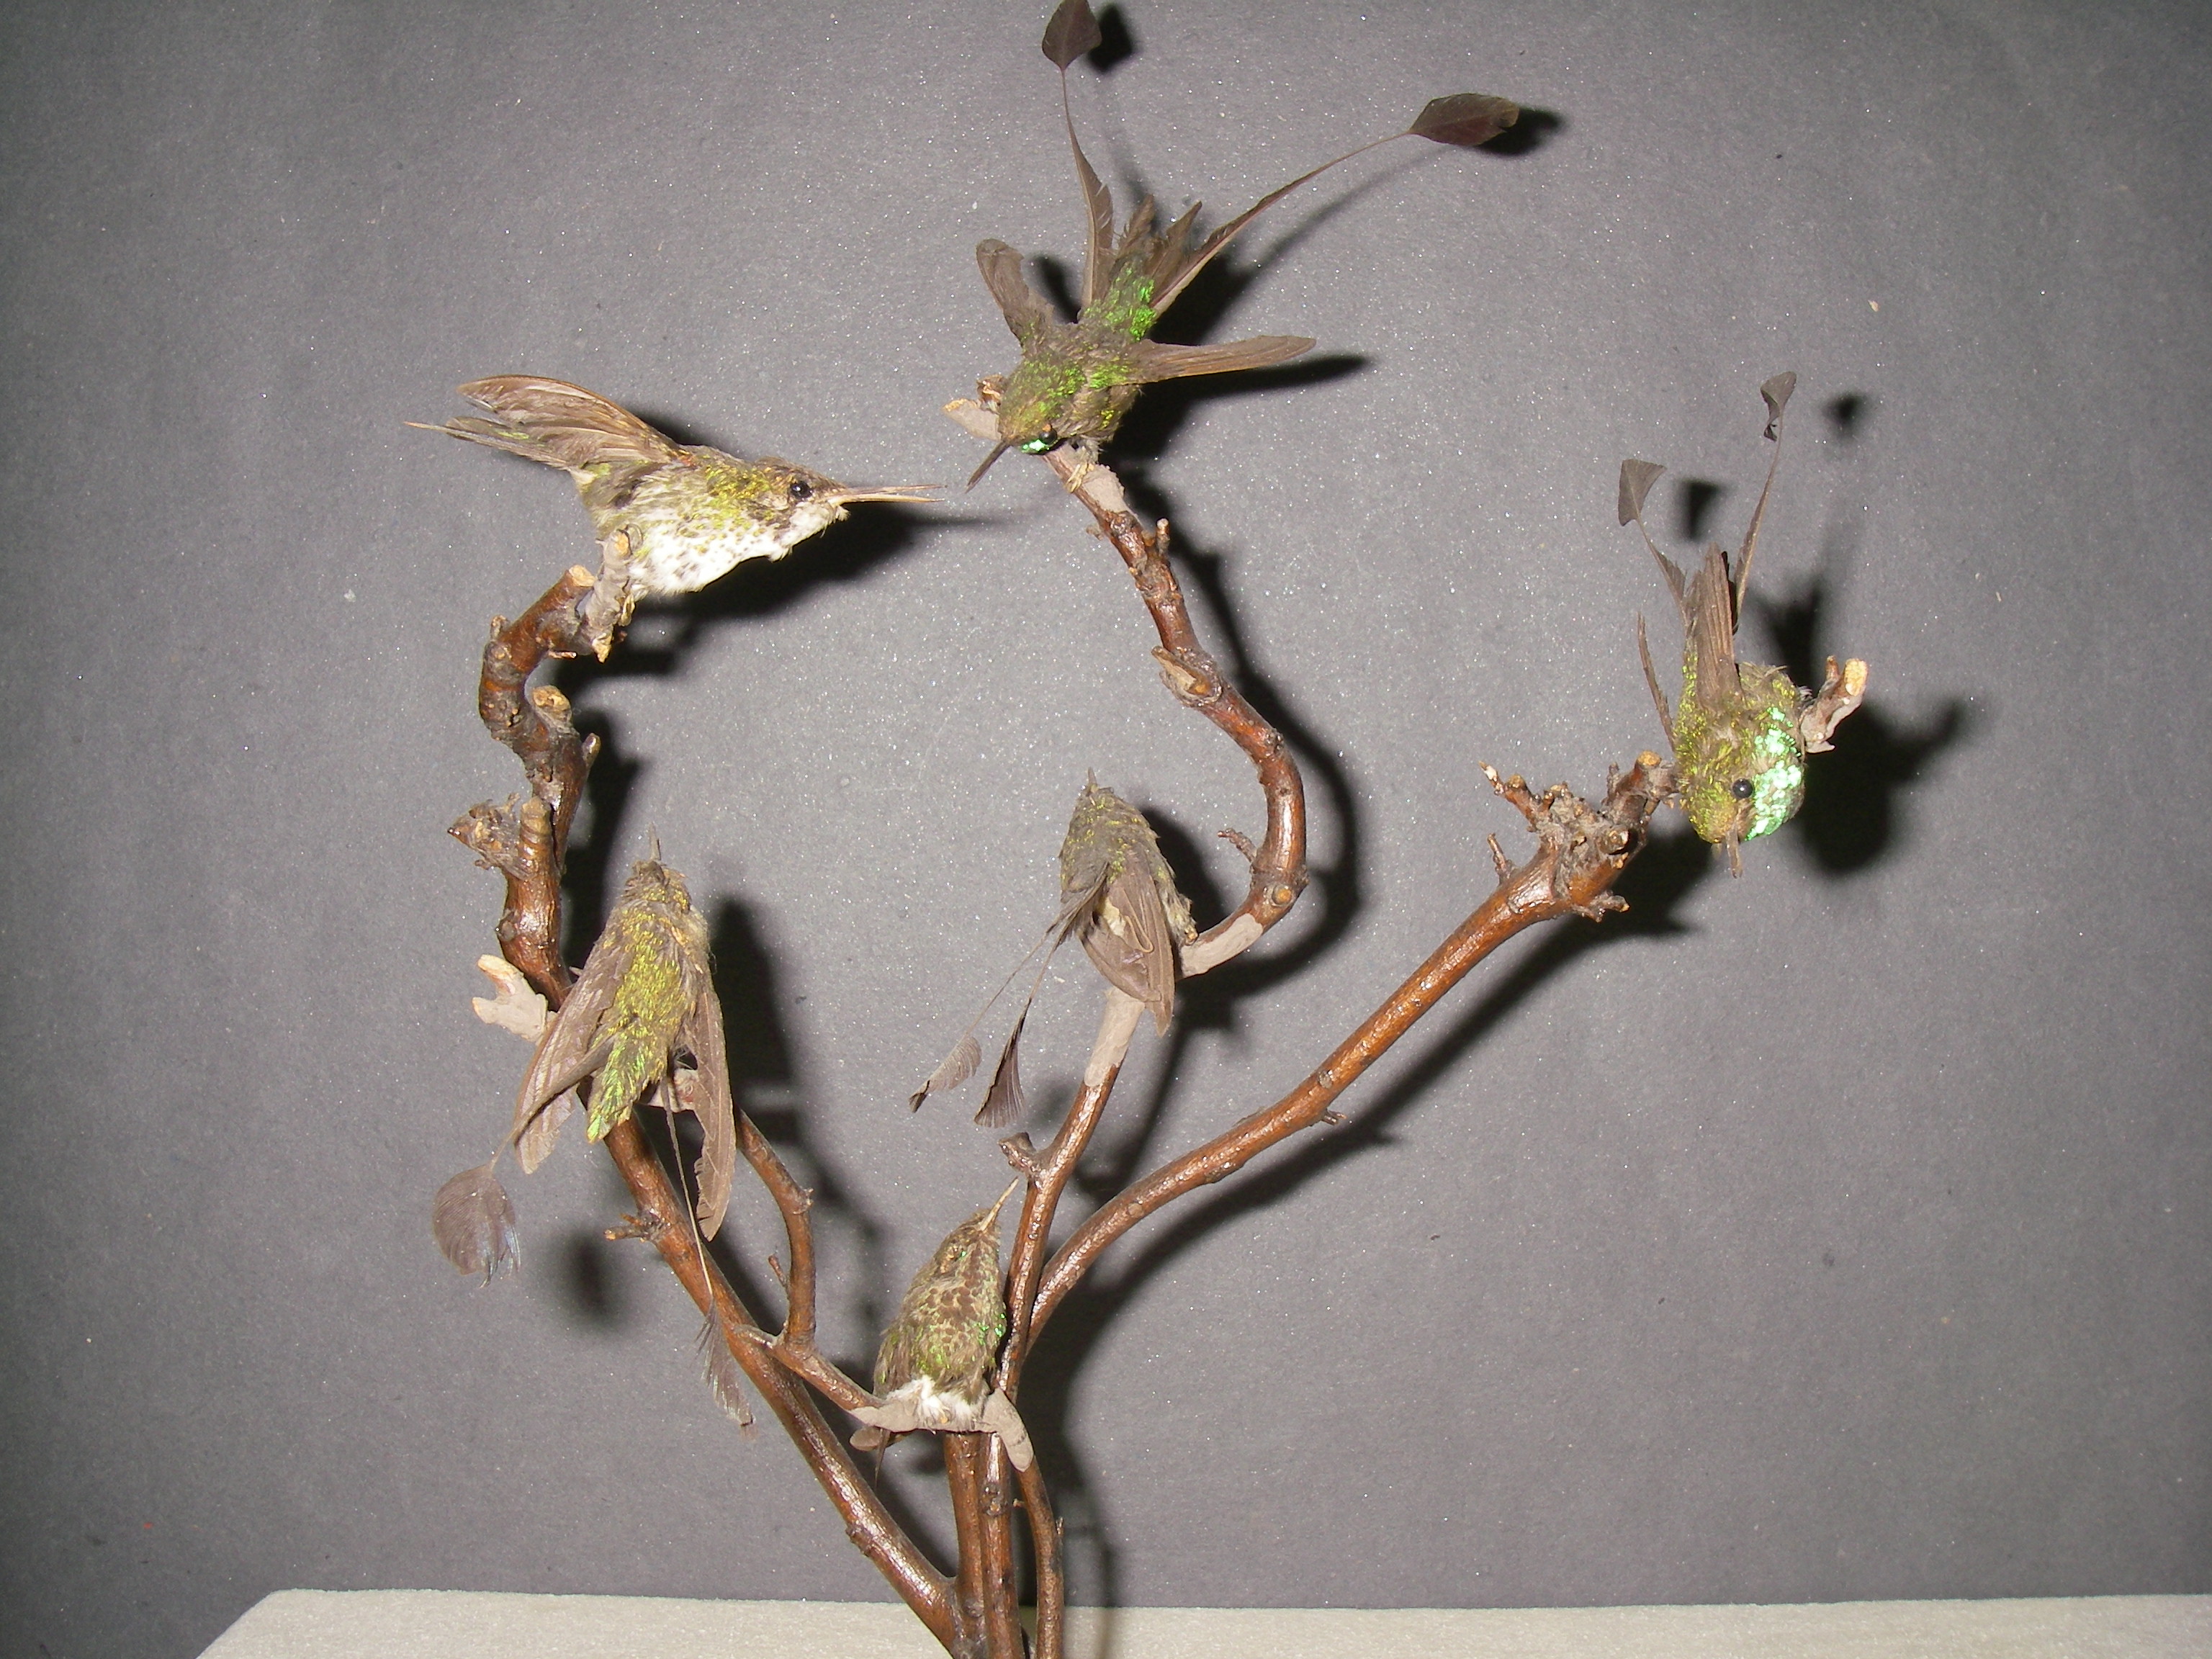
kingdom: Animalia
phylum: Chordata
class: Aves
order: Apodiformes
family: Trochilidae
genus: Ocreatus
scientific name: Ocreatus underwoodii
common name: Booted racket-tail
